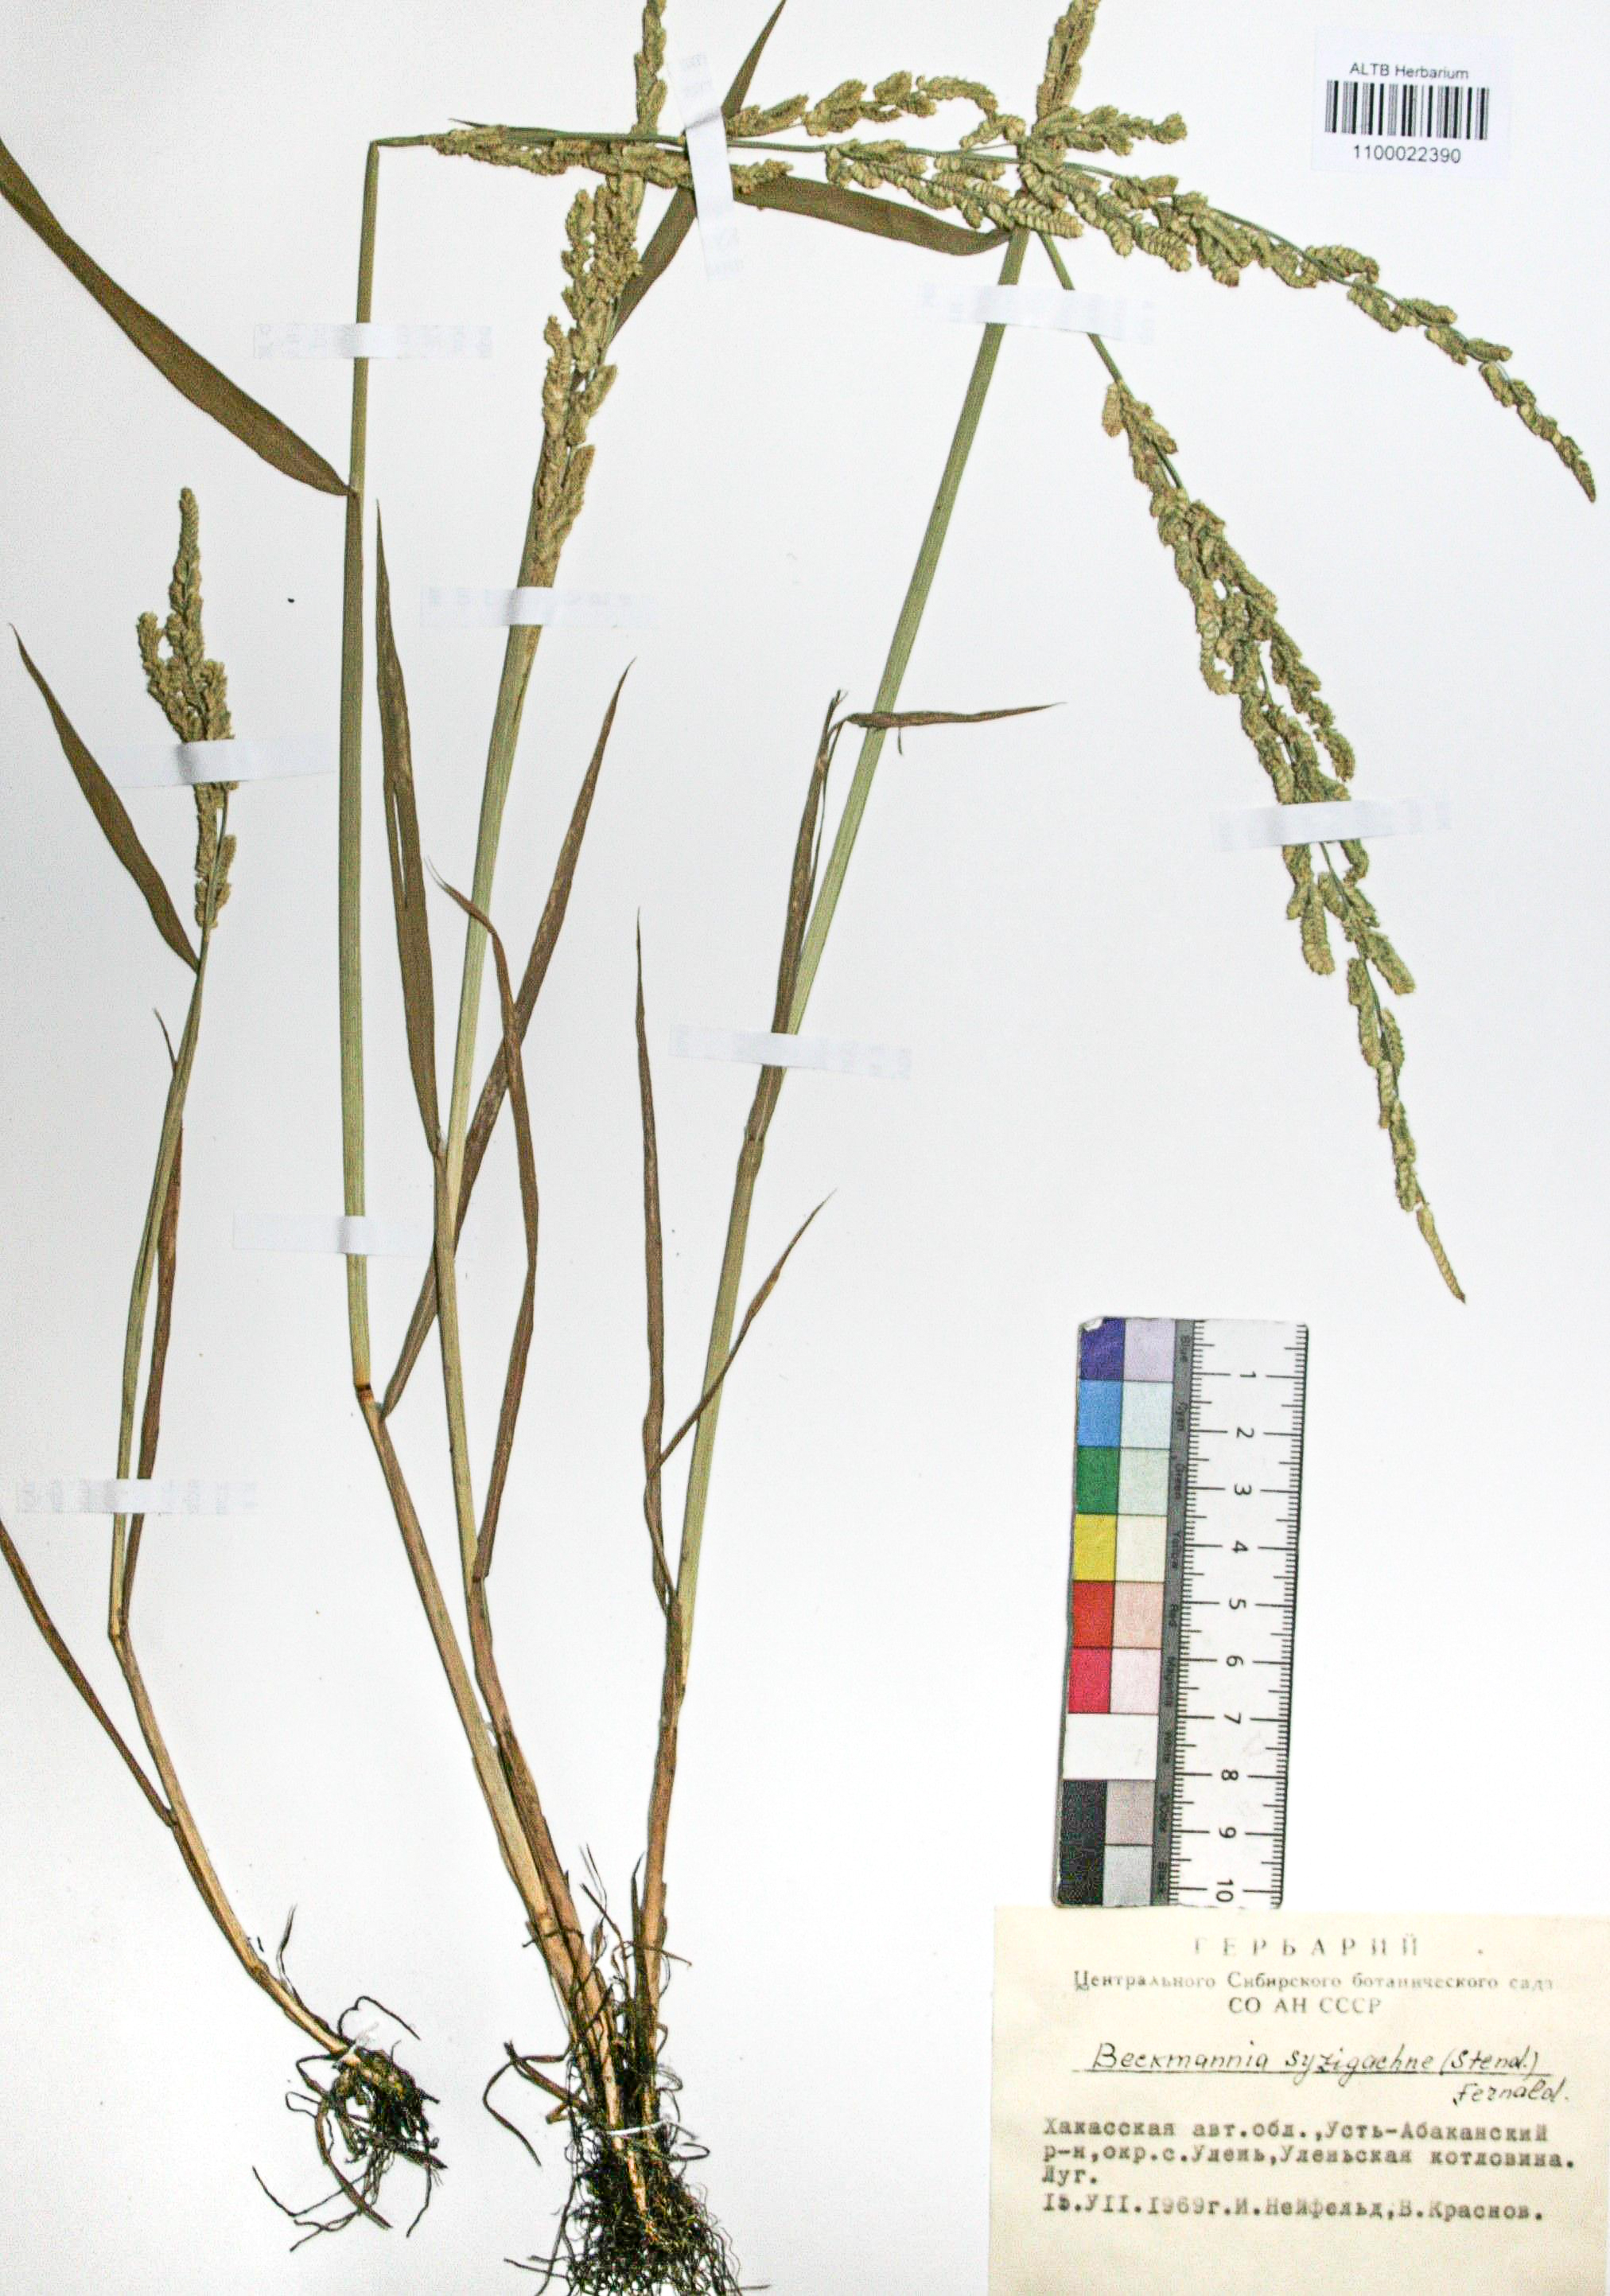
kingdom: Plantae
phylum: Tracheophyta
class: Liliopsida
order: Poales
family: Poaceae
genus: Beckmannia
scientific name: Beckmannia syzigachne
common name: American slough-grass
